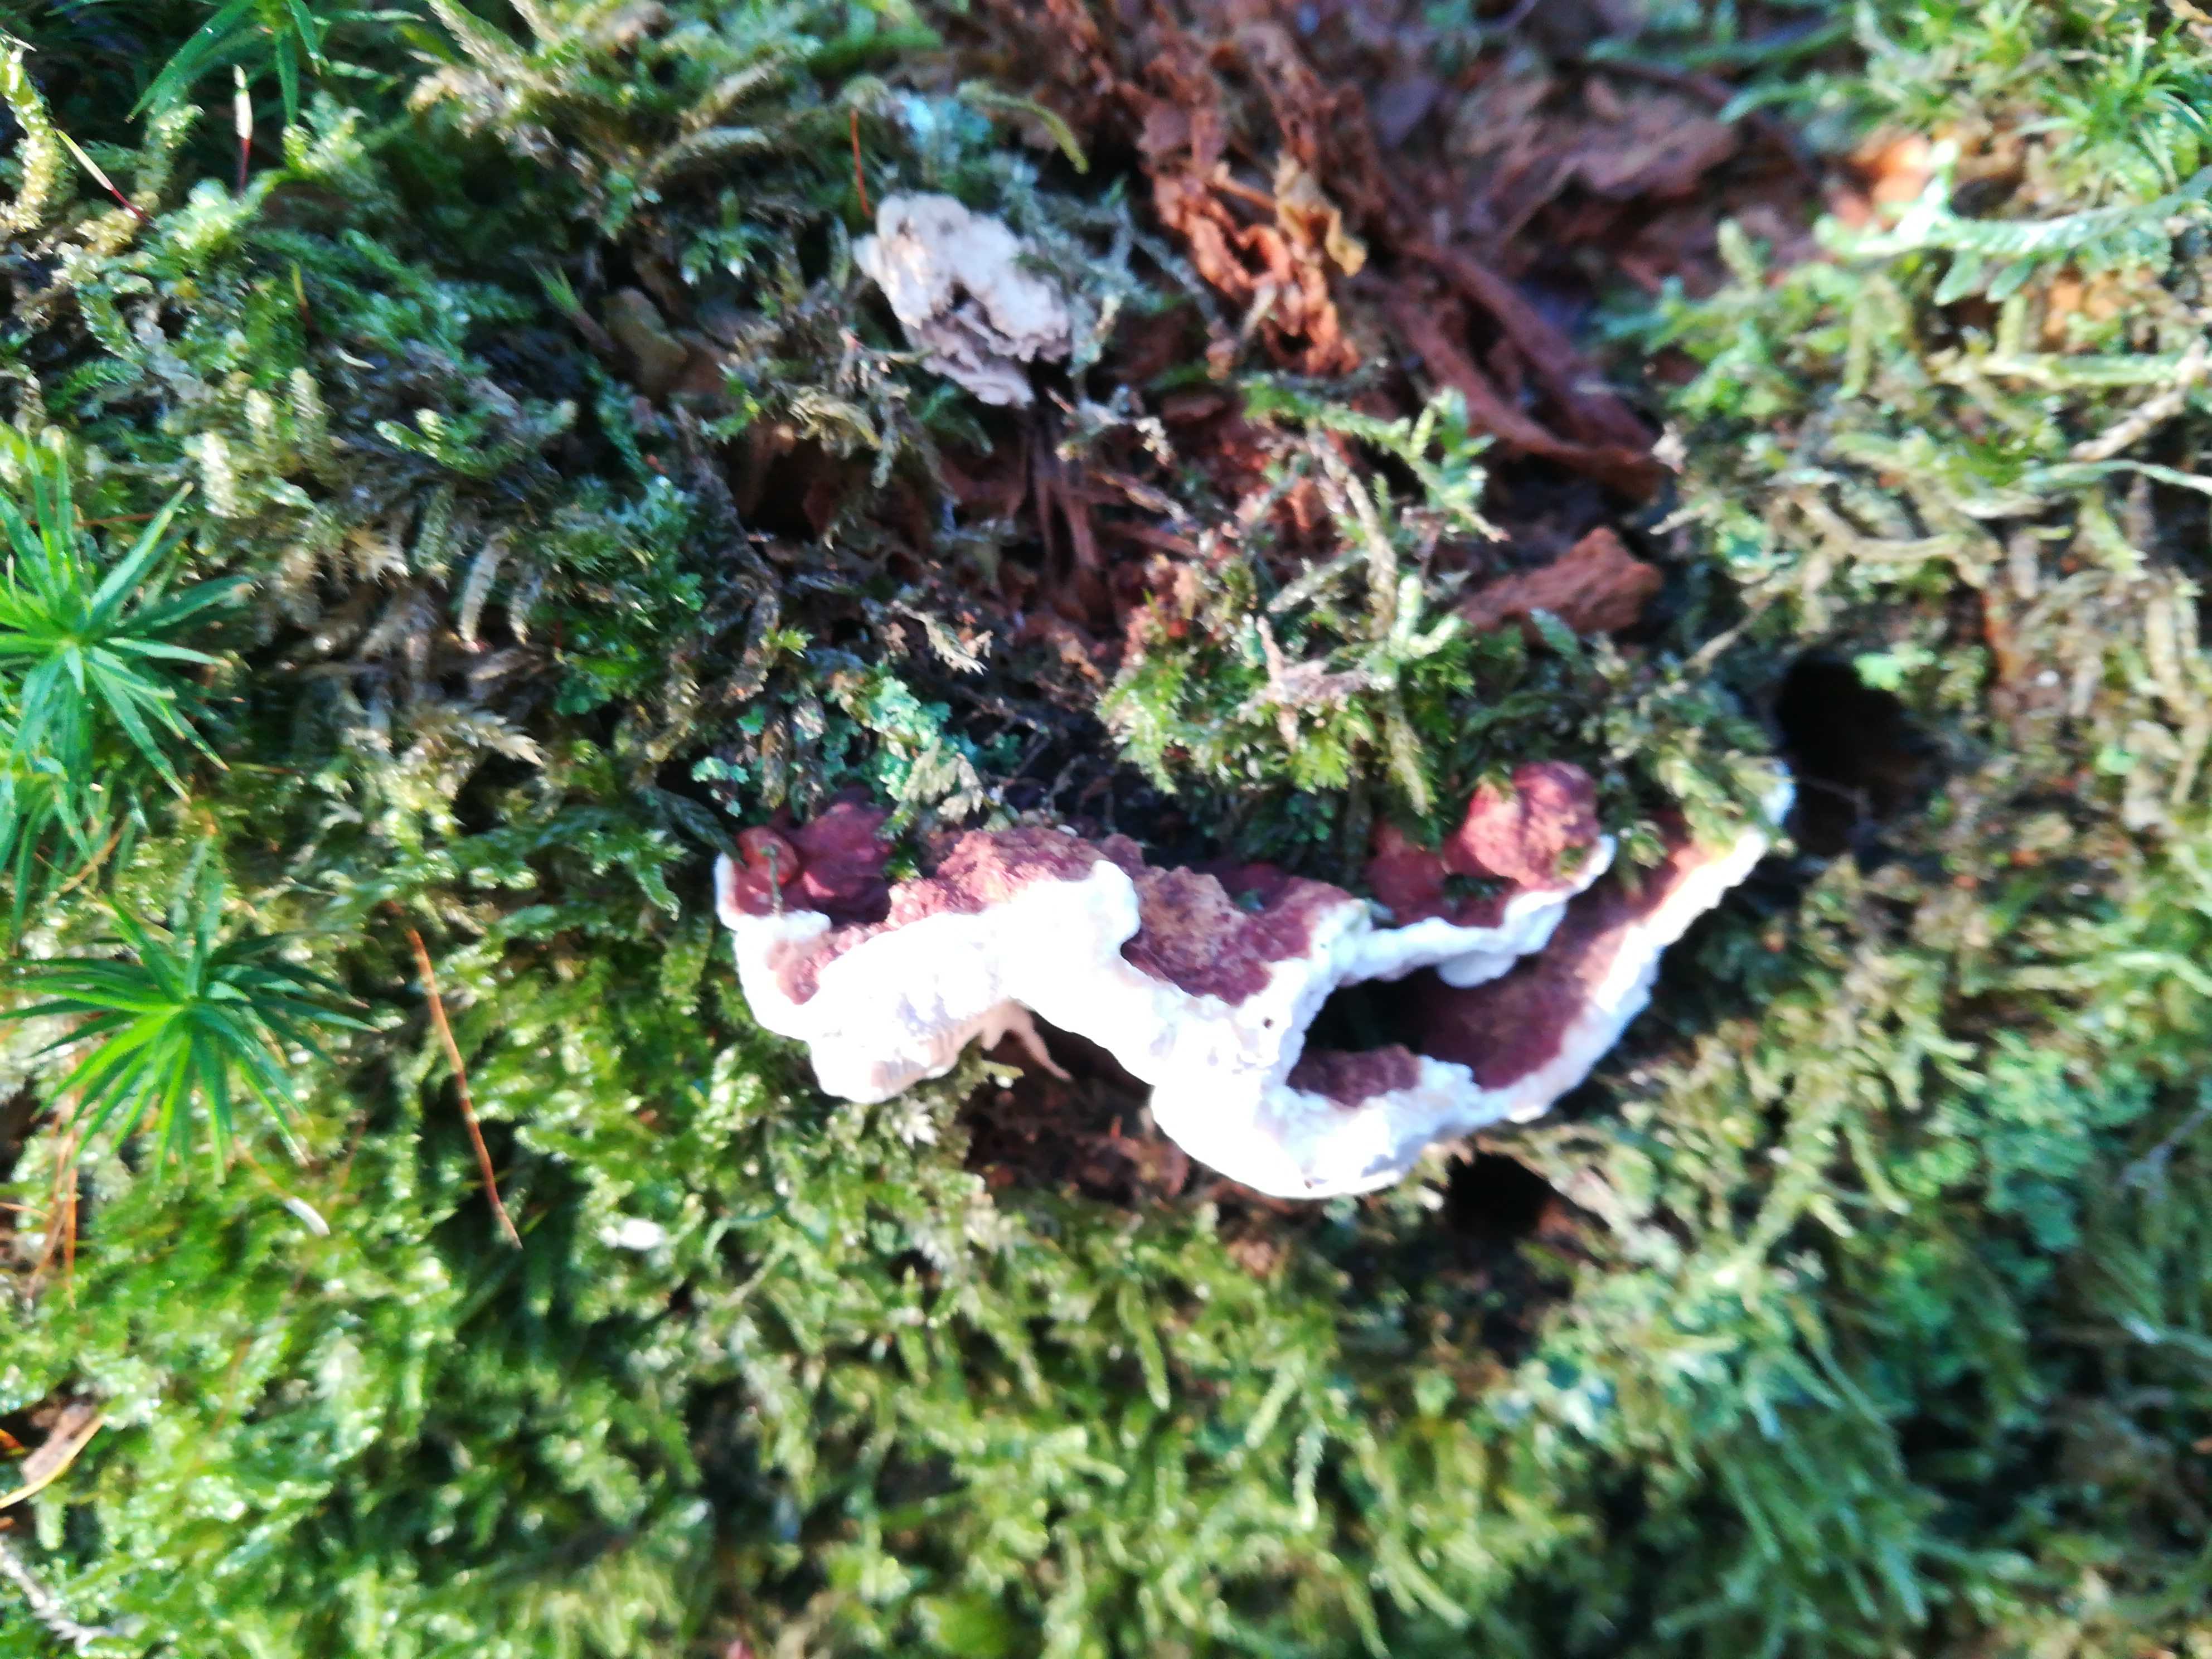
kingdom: Fungi
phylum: Basidiomycota
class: Agaricomycetes
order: Russulales
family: Bondarzewiaceae
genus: Heterobasidion
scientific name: Heterobasidion annosum
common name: almindelig rodfordærver
